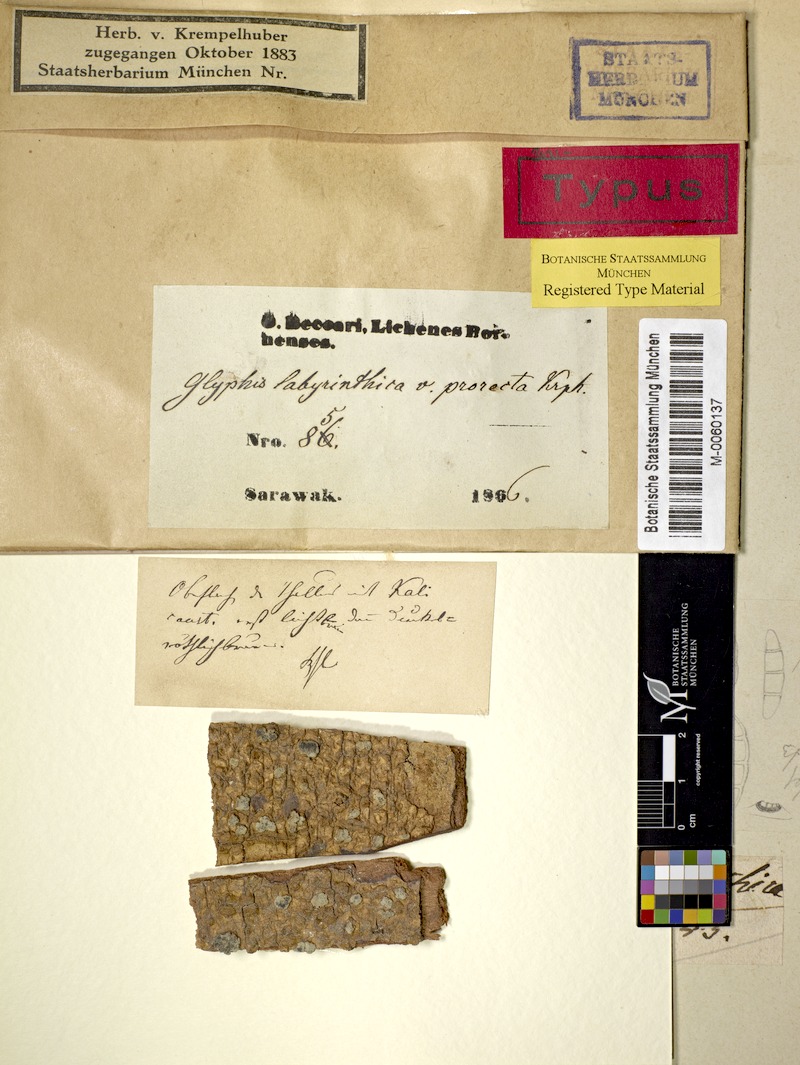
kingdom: Fungi
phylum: Ascomycota
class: Lecanoromycetes
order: Ostropales
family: Graphidaceae
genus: Sarcographa
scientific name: Sarcographa
